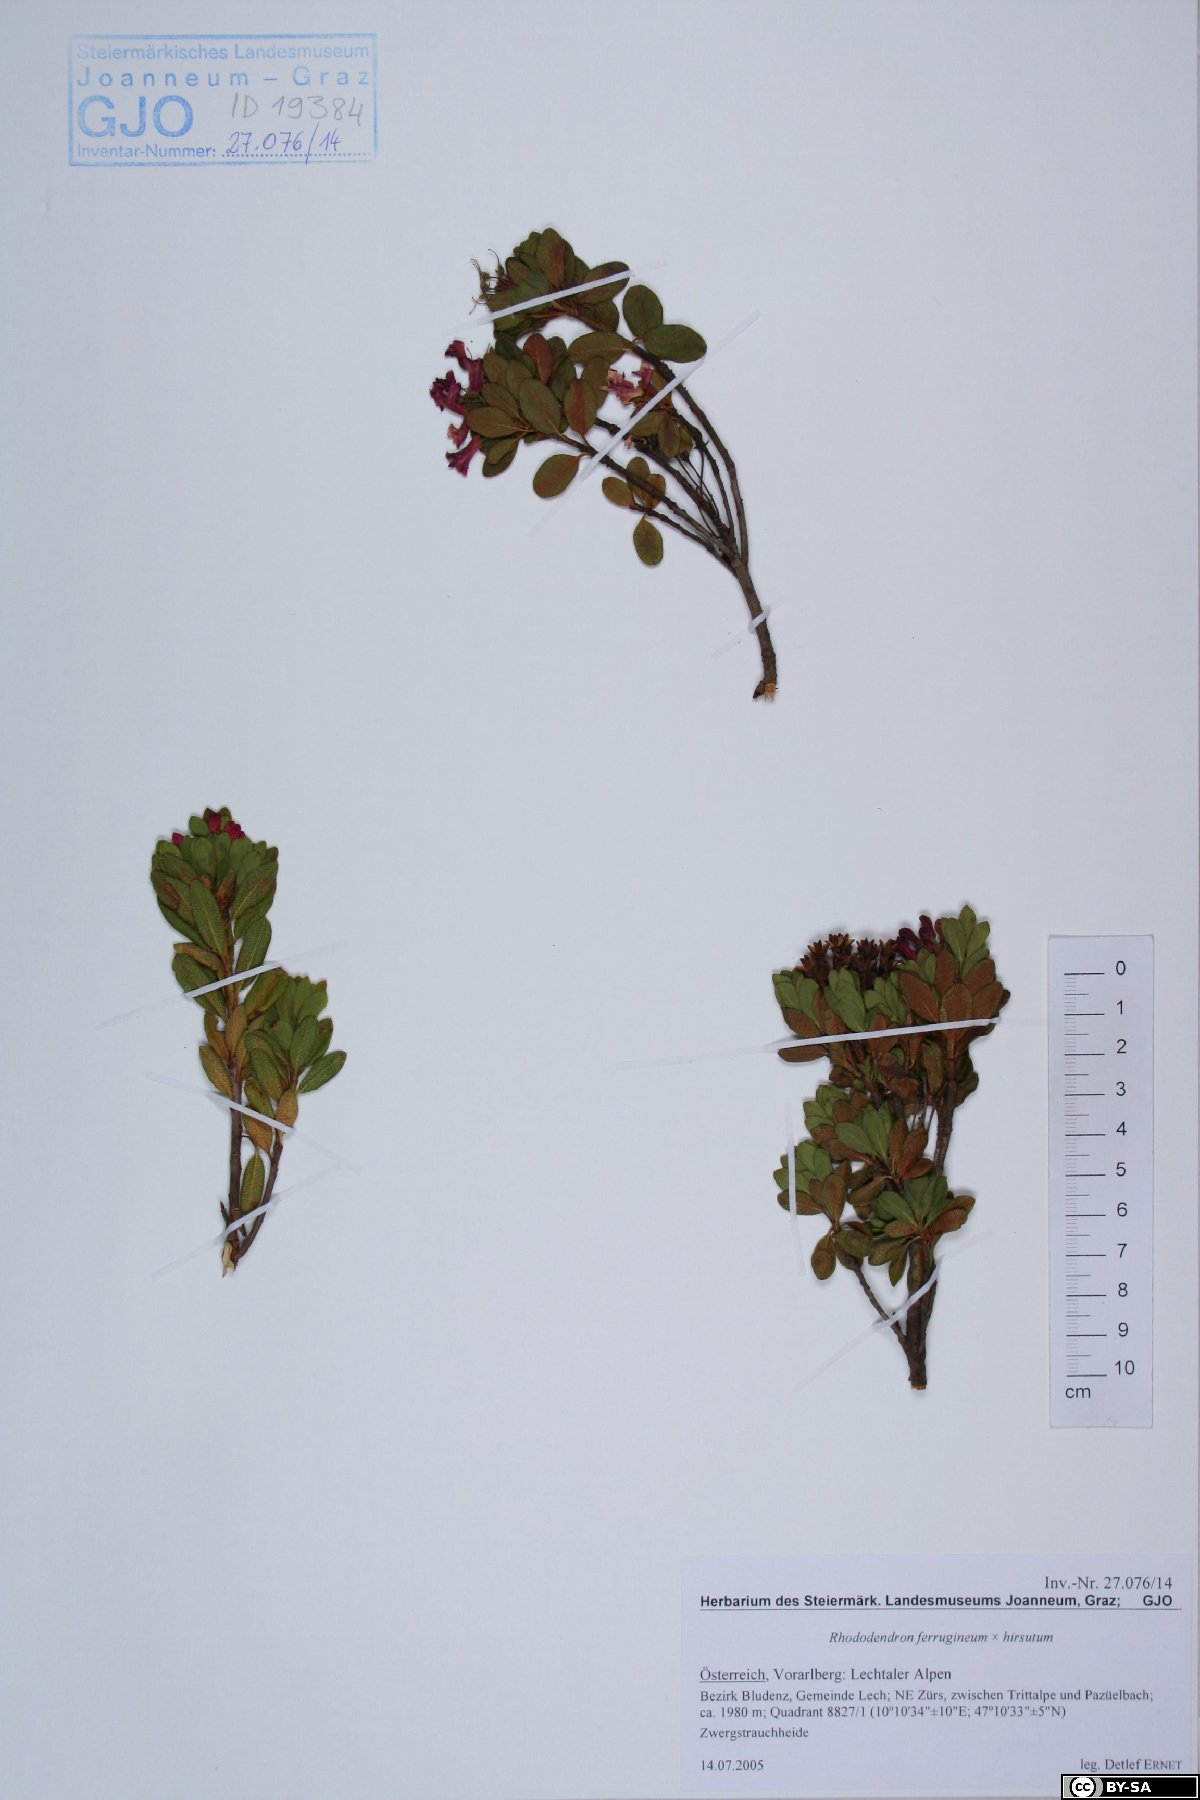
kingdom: Plantae
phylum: Tracheophyta
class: Magnoliopsida
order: Ericales
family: Ericaceae
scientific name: Ericaceae
